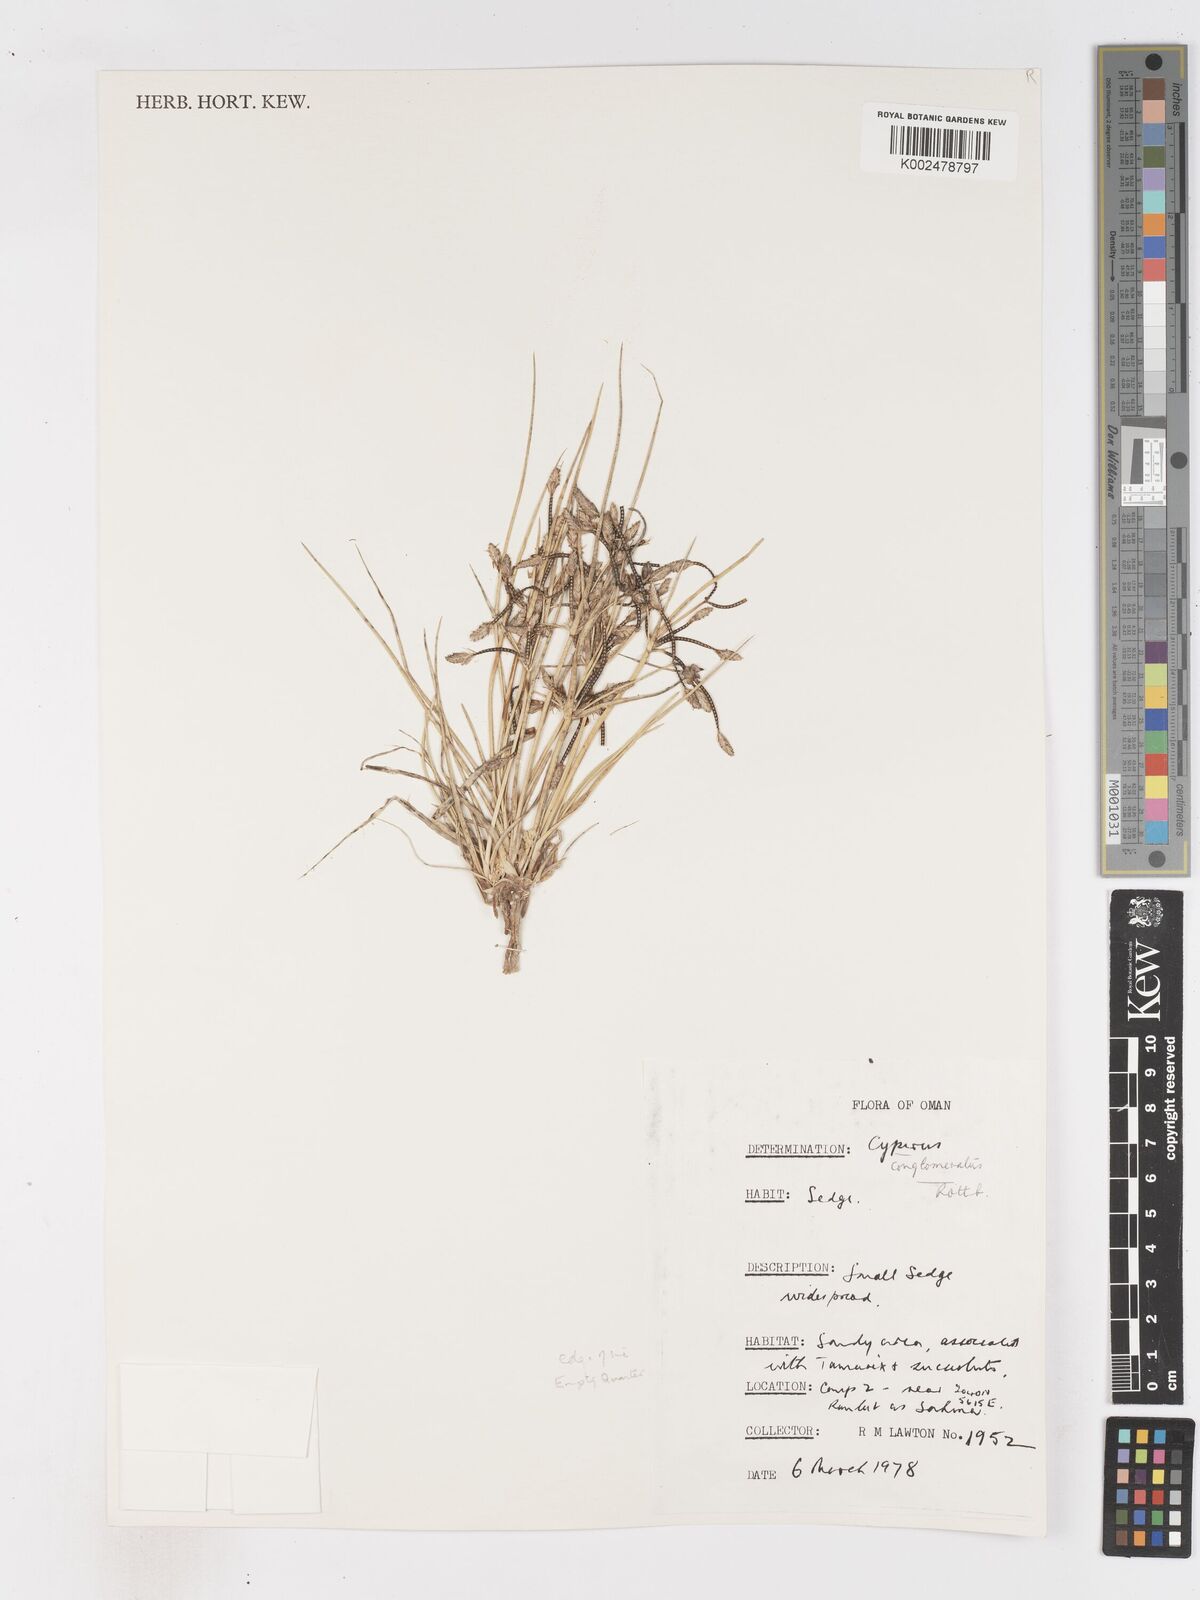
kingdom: Plantae
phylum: Tracheophyta
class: Liliopsida
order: Poales
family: Cyperaceae
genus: Cyperus
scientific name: Cyperus aucheri
